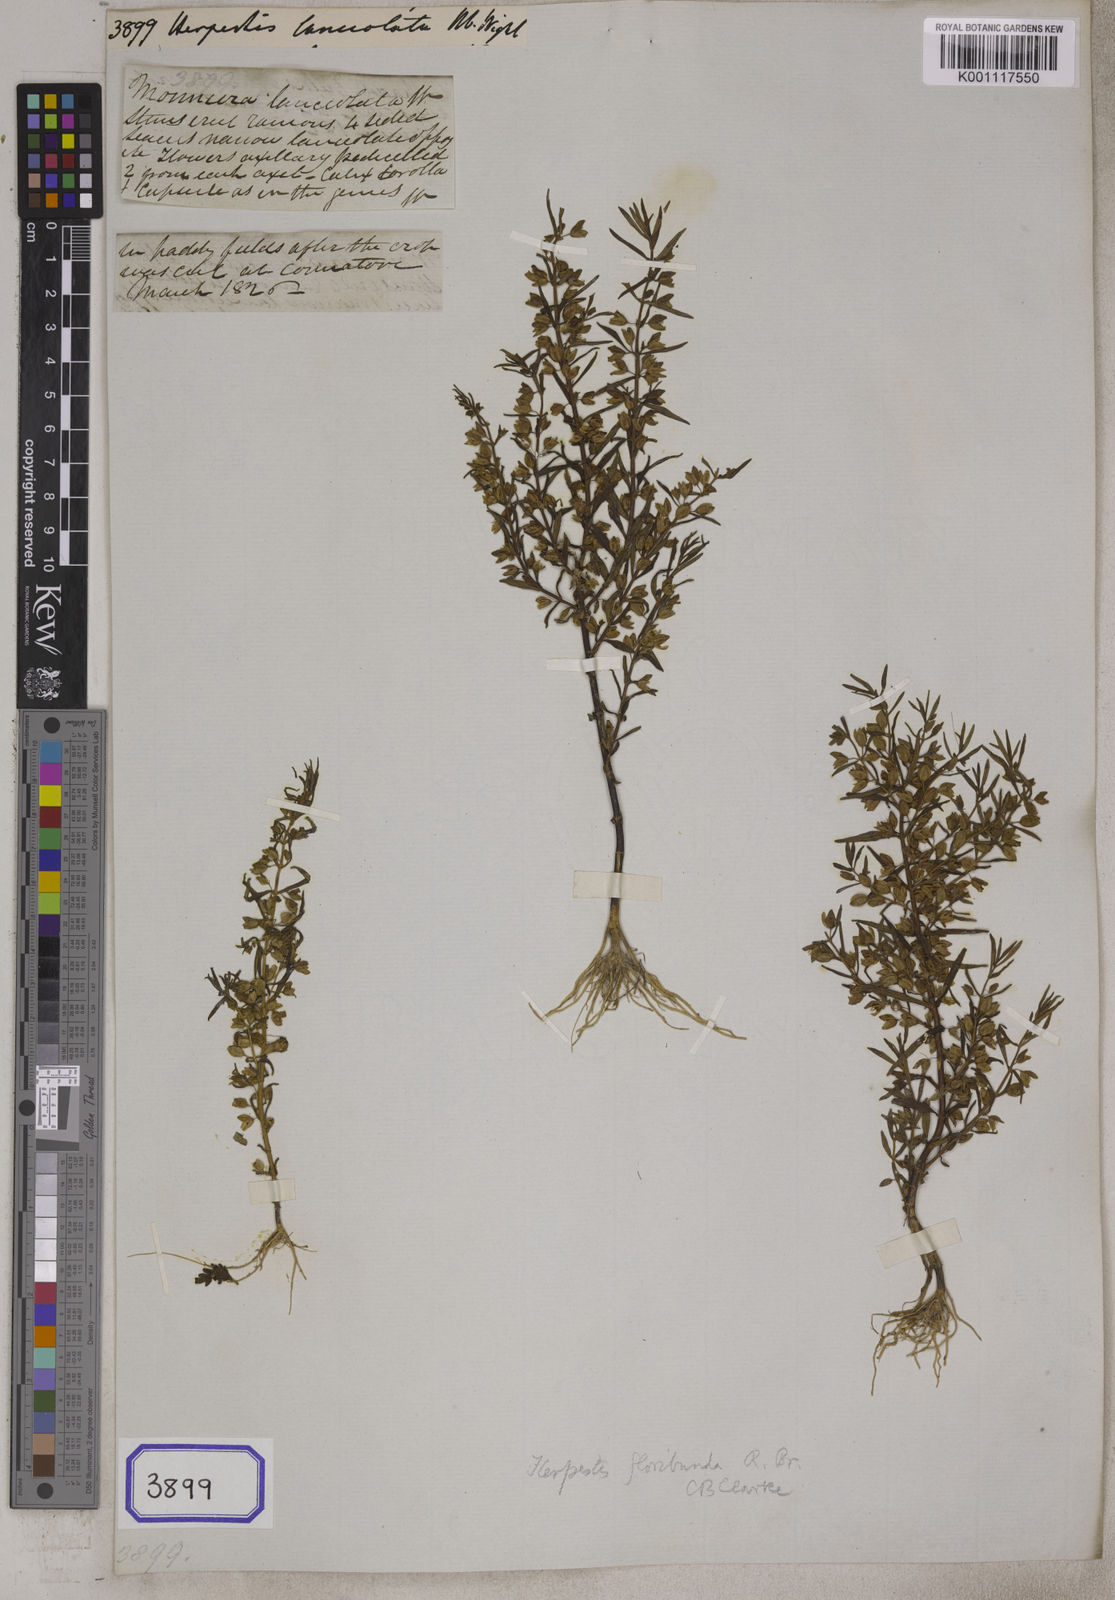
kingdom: Plantae
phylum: Tracheophyta
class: Magnoliopsida
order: Lamiales
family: Plantaginaceae
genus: Bacopa
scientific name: Bacopa floribunda
